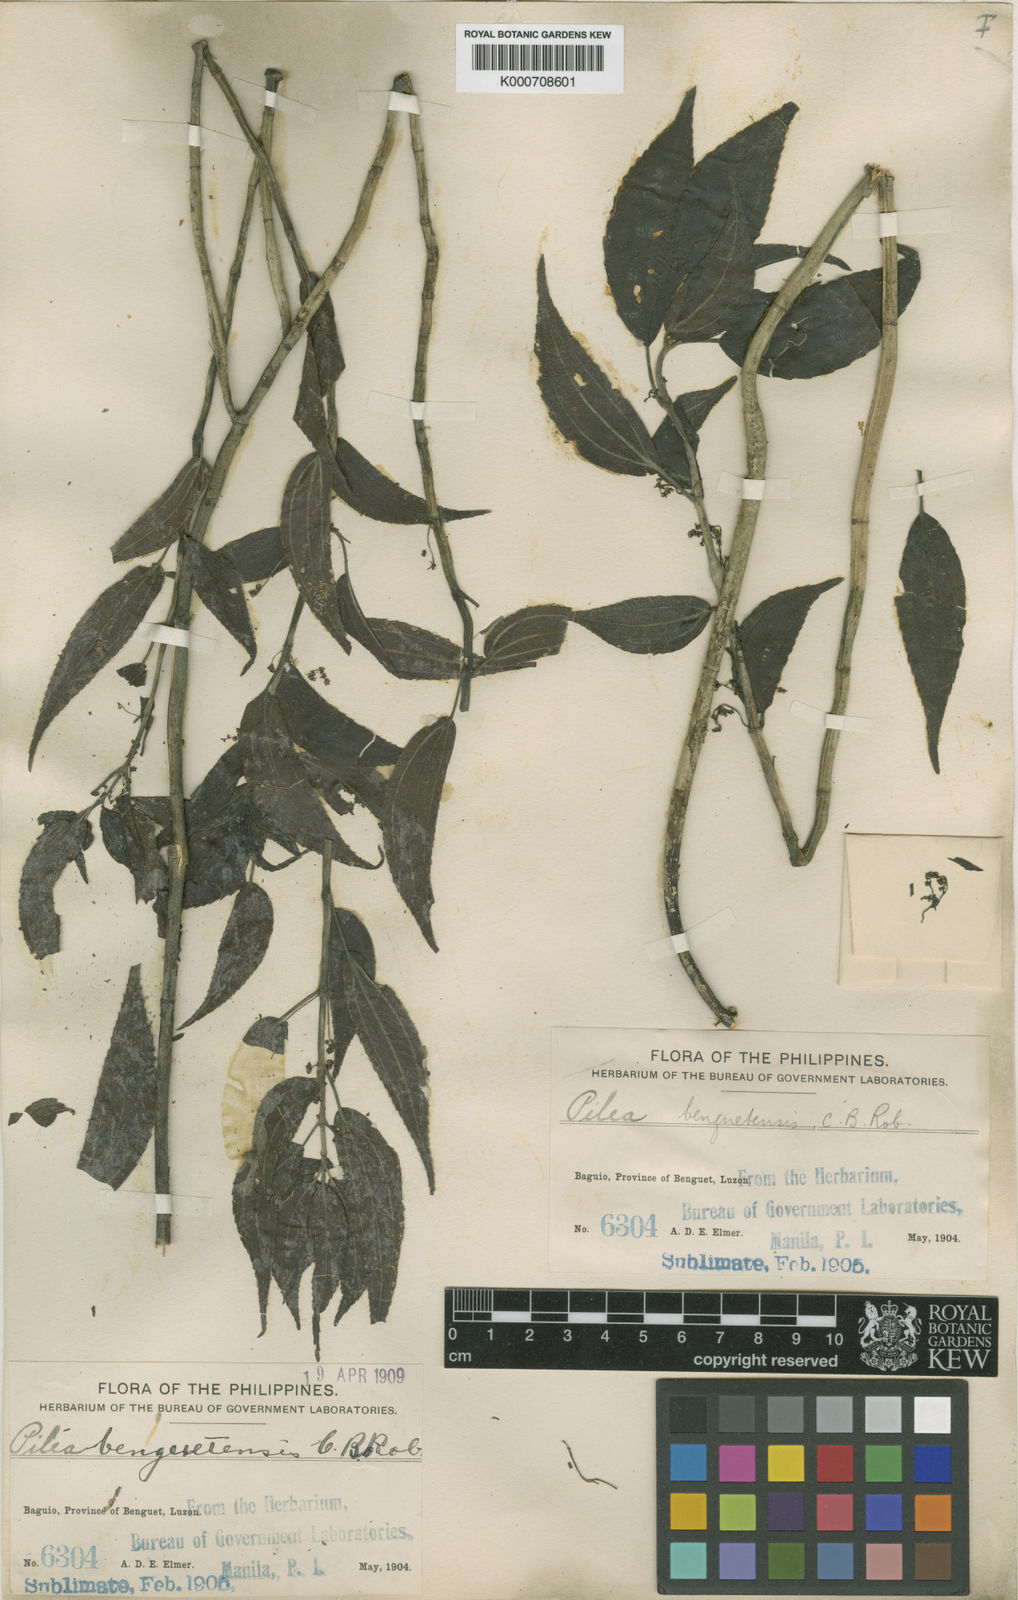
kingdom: Plantae
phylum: Tracheophyta
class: Magnoliopsida
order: Rosales
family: Urticaceae
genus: Pilea
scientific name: Pilea benguetensis
